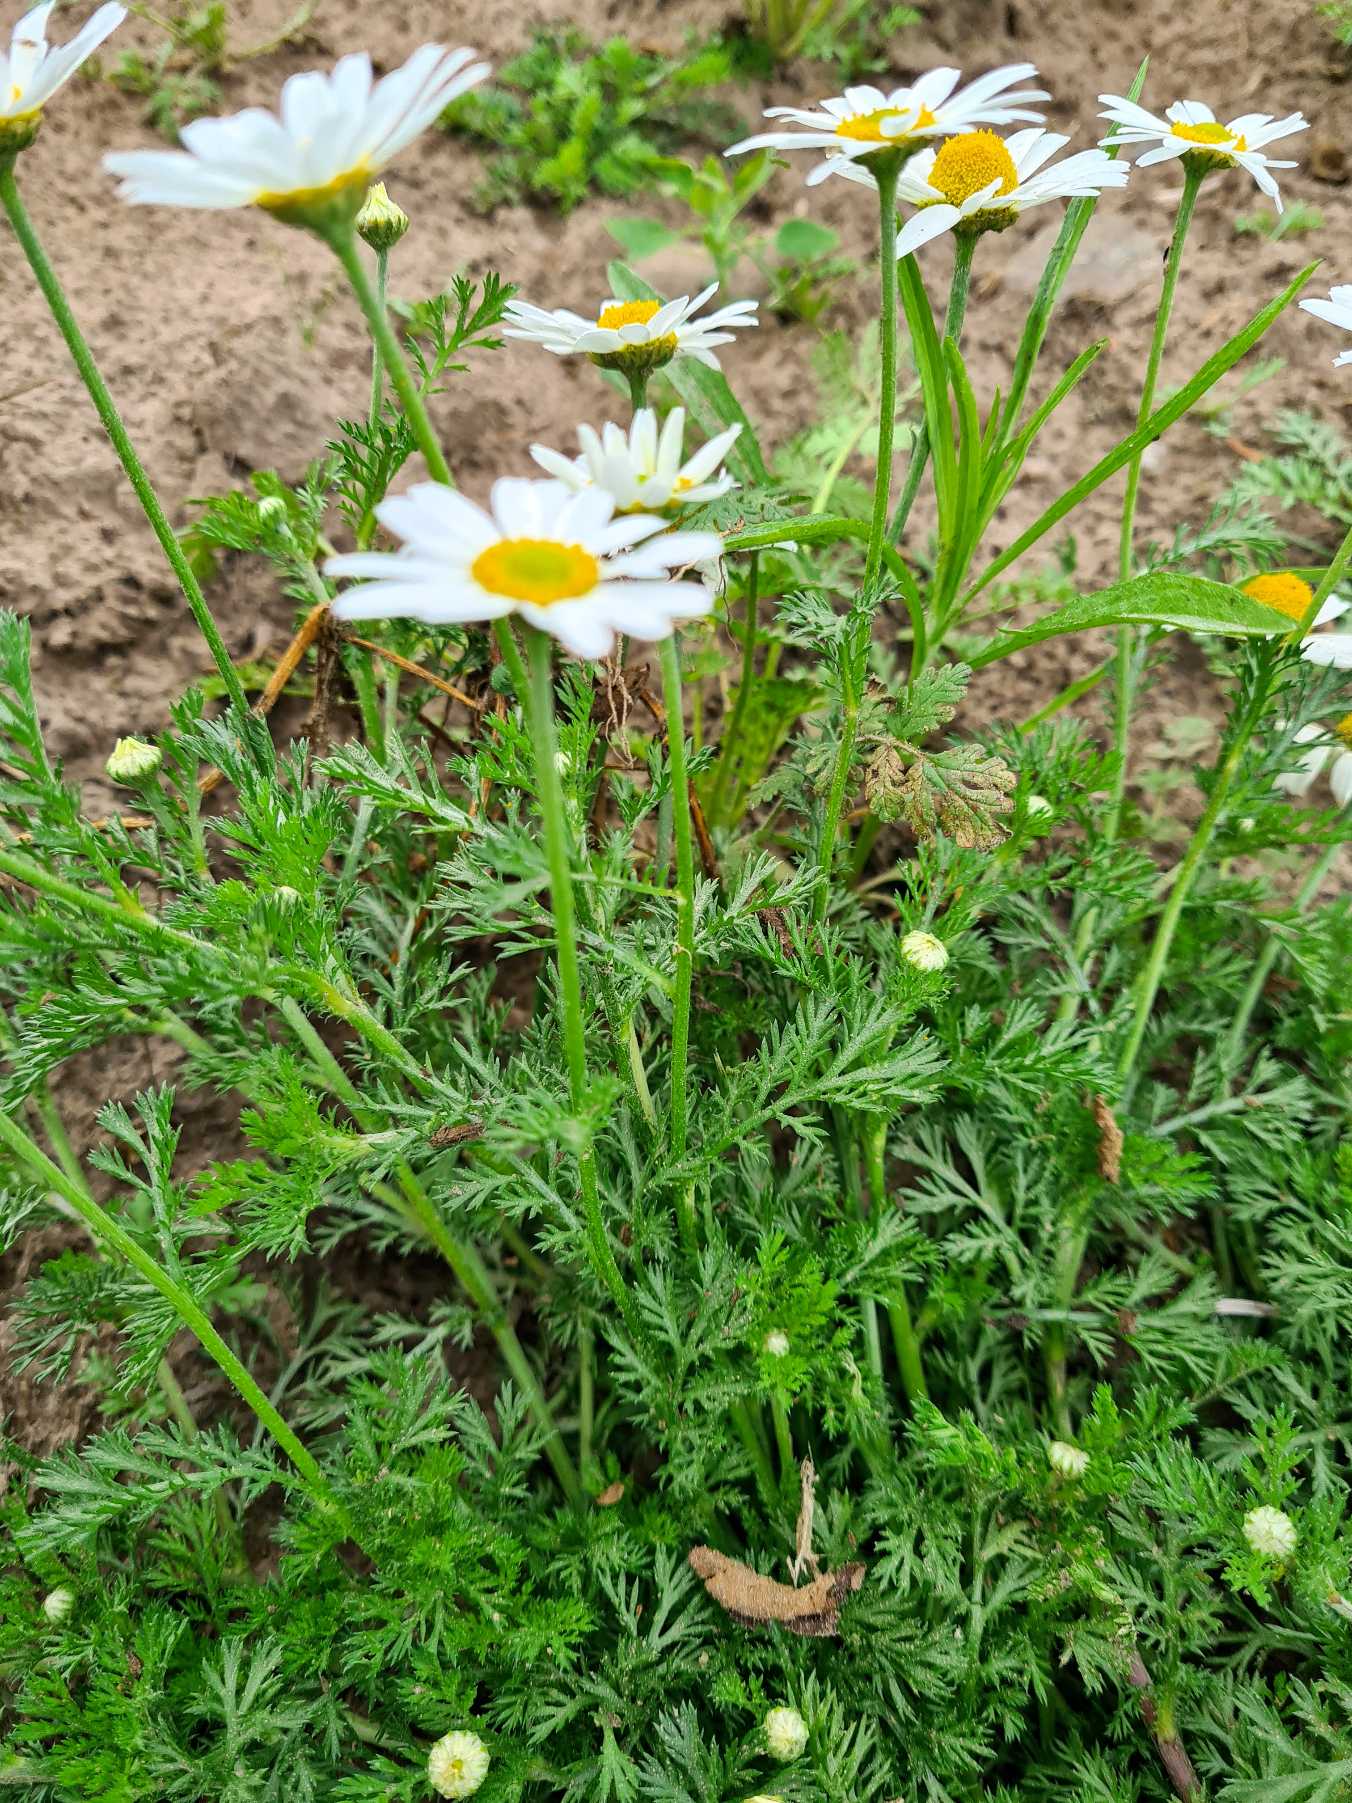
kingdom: Plantae
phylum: Tracheophyta
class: Magnoliopsida
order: Asterales
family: Asteraceae
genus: Anthemis
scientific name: Anthemis arvensis
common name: Ager-gåseurt
